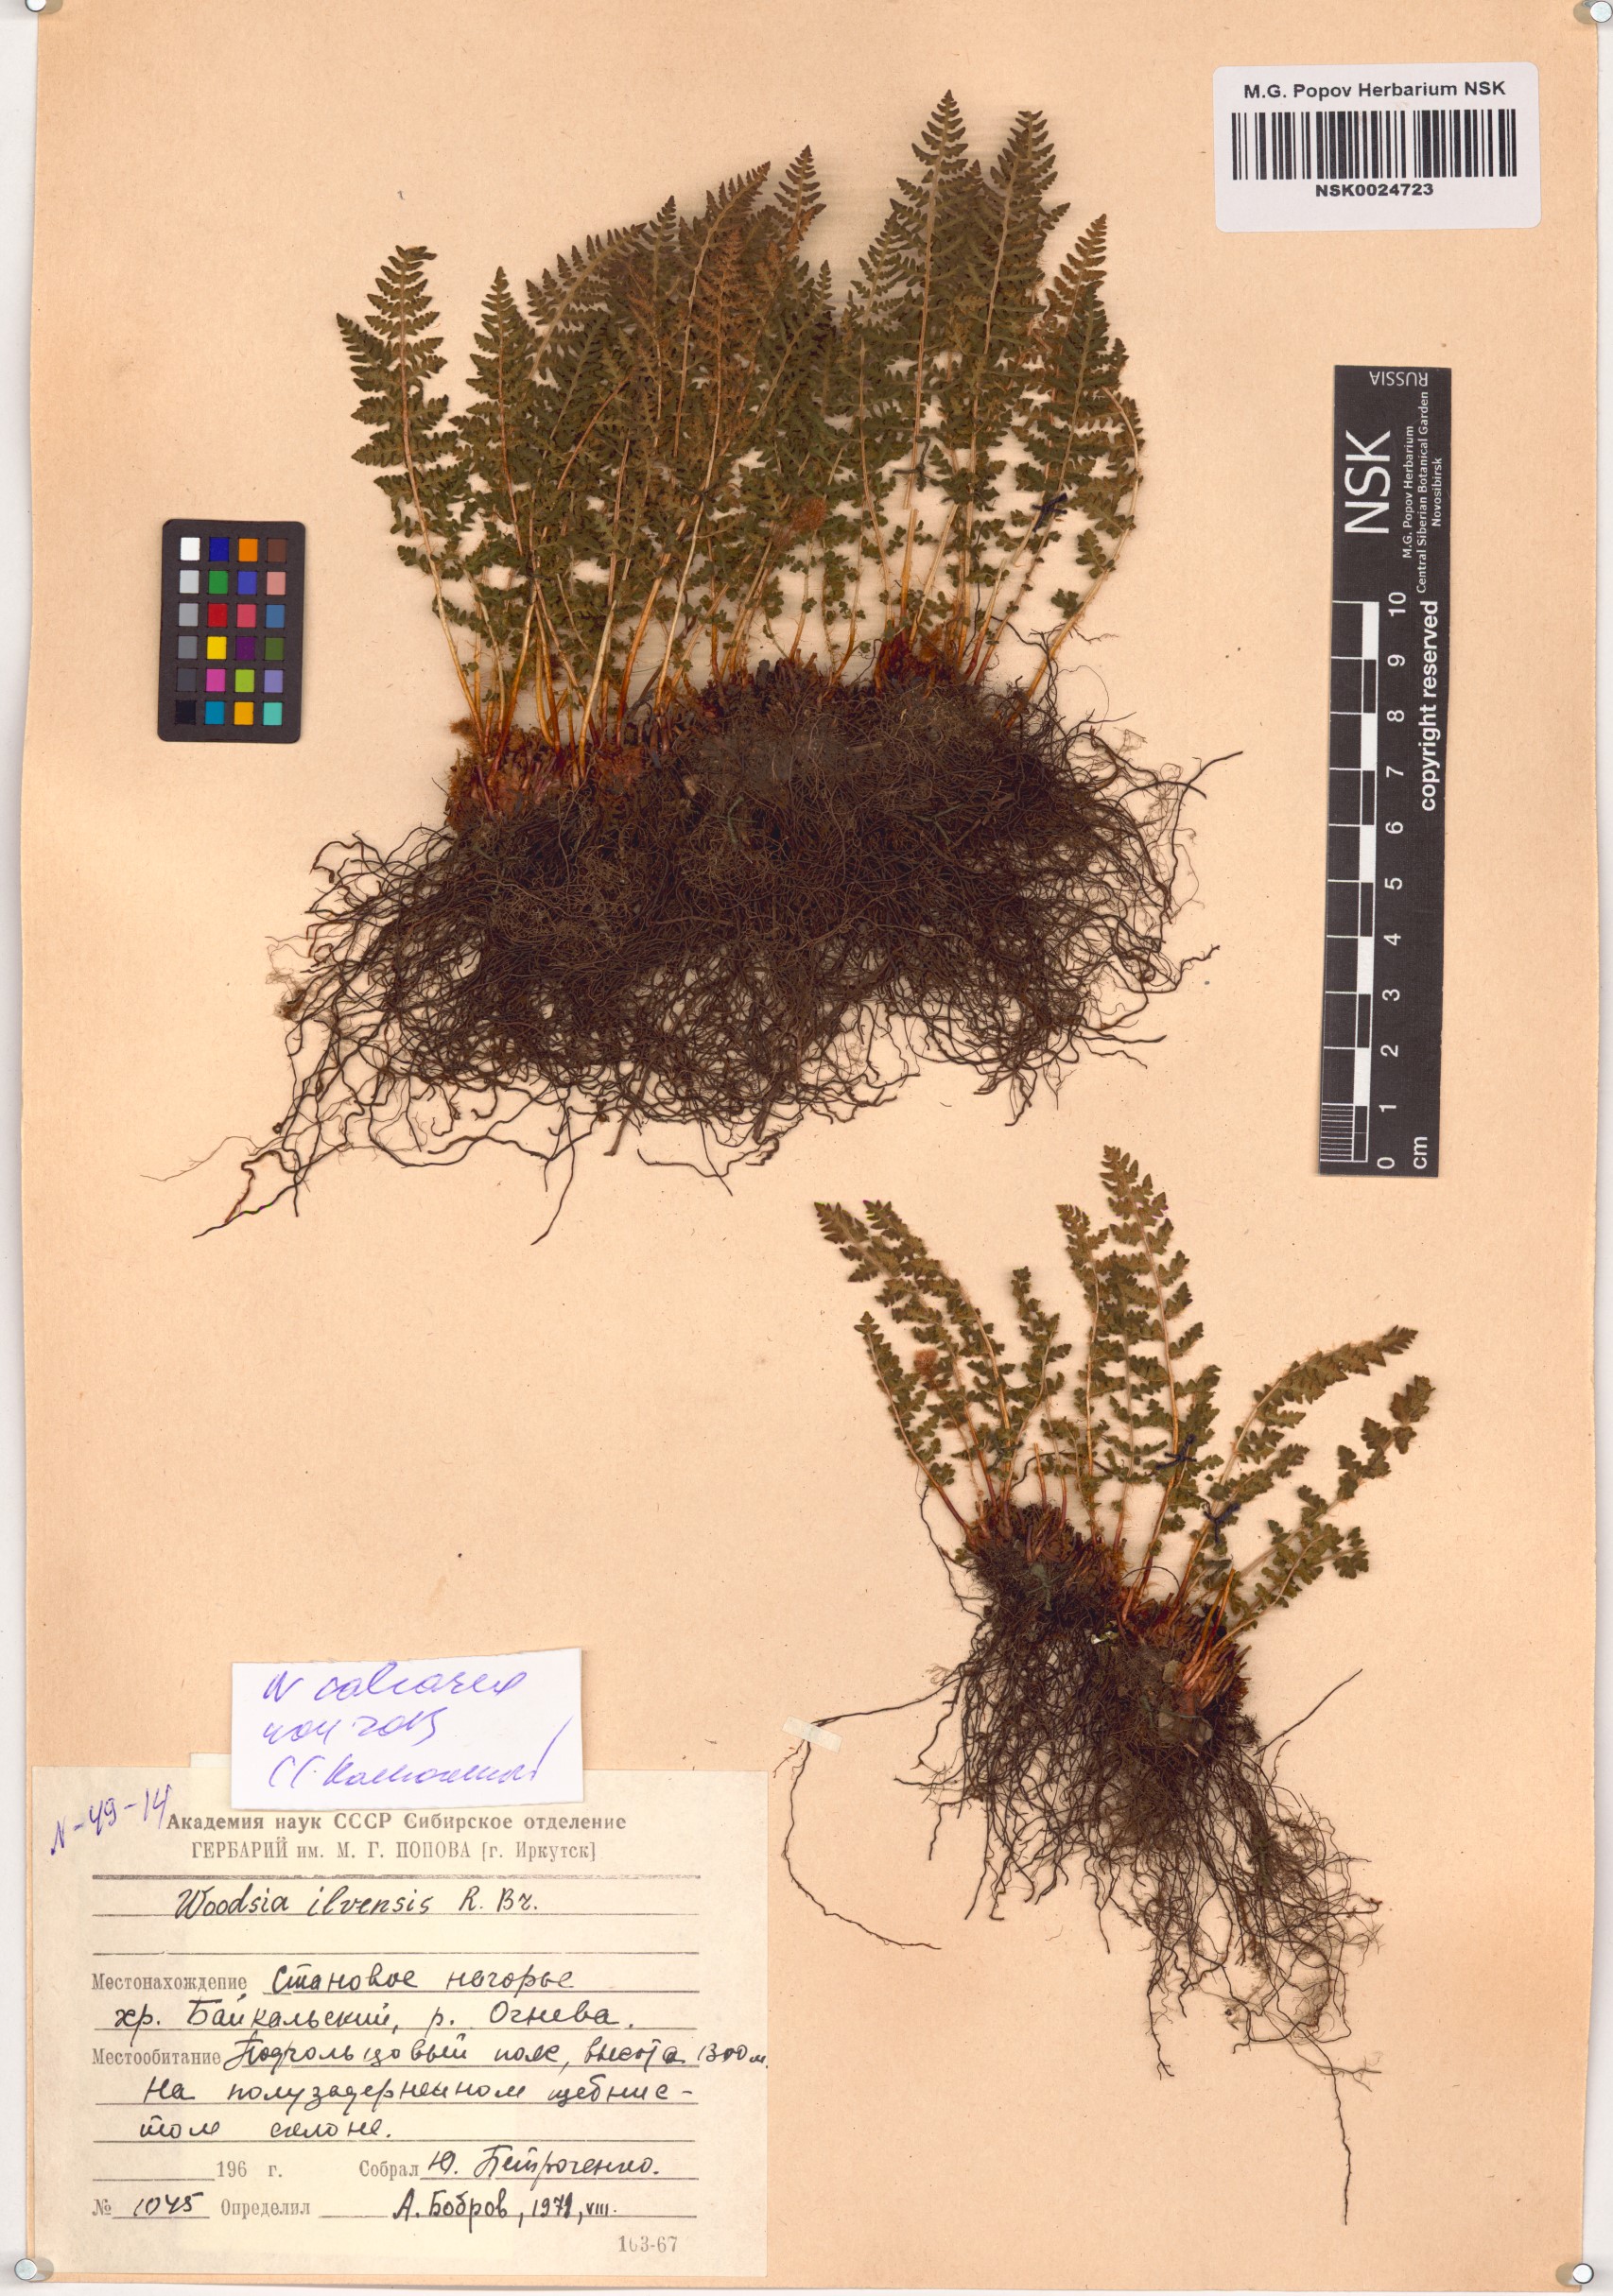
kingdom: Plantae
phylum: Tracheophyta
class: Polypodiopsida
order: Polypodiales
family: Woodsiaceae
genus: Woodsia
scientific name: Woodsia calcarea
